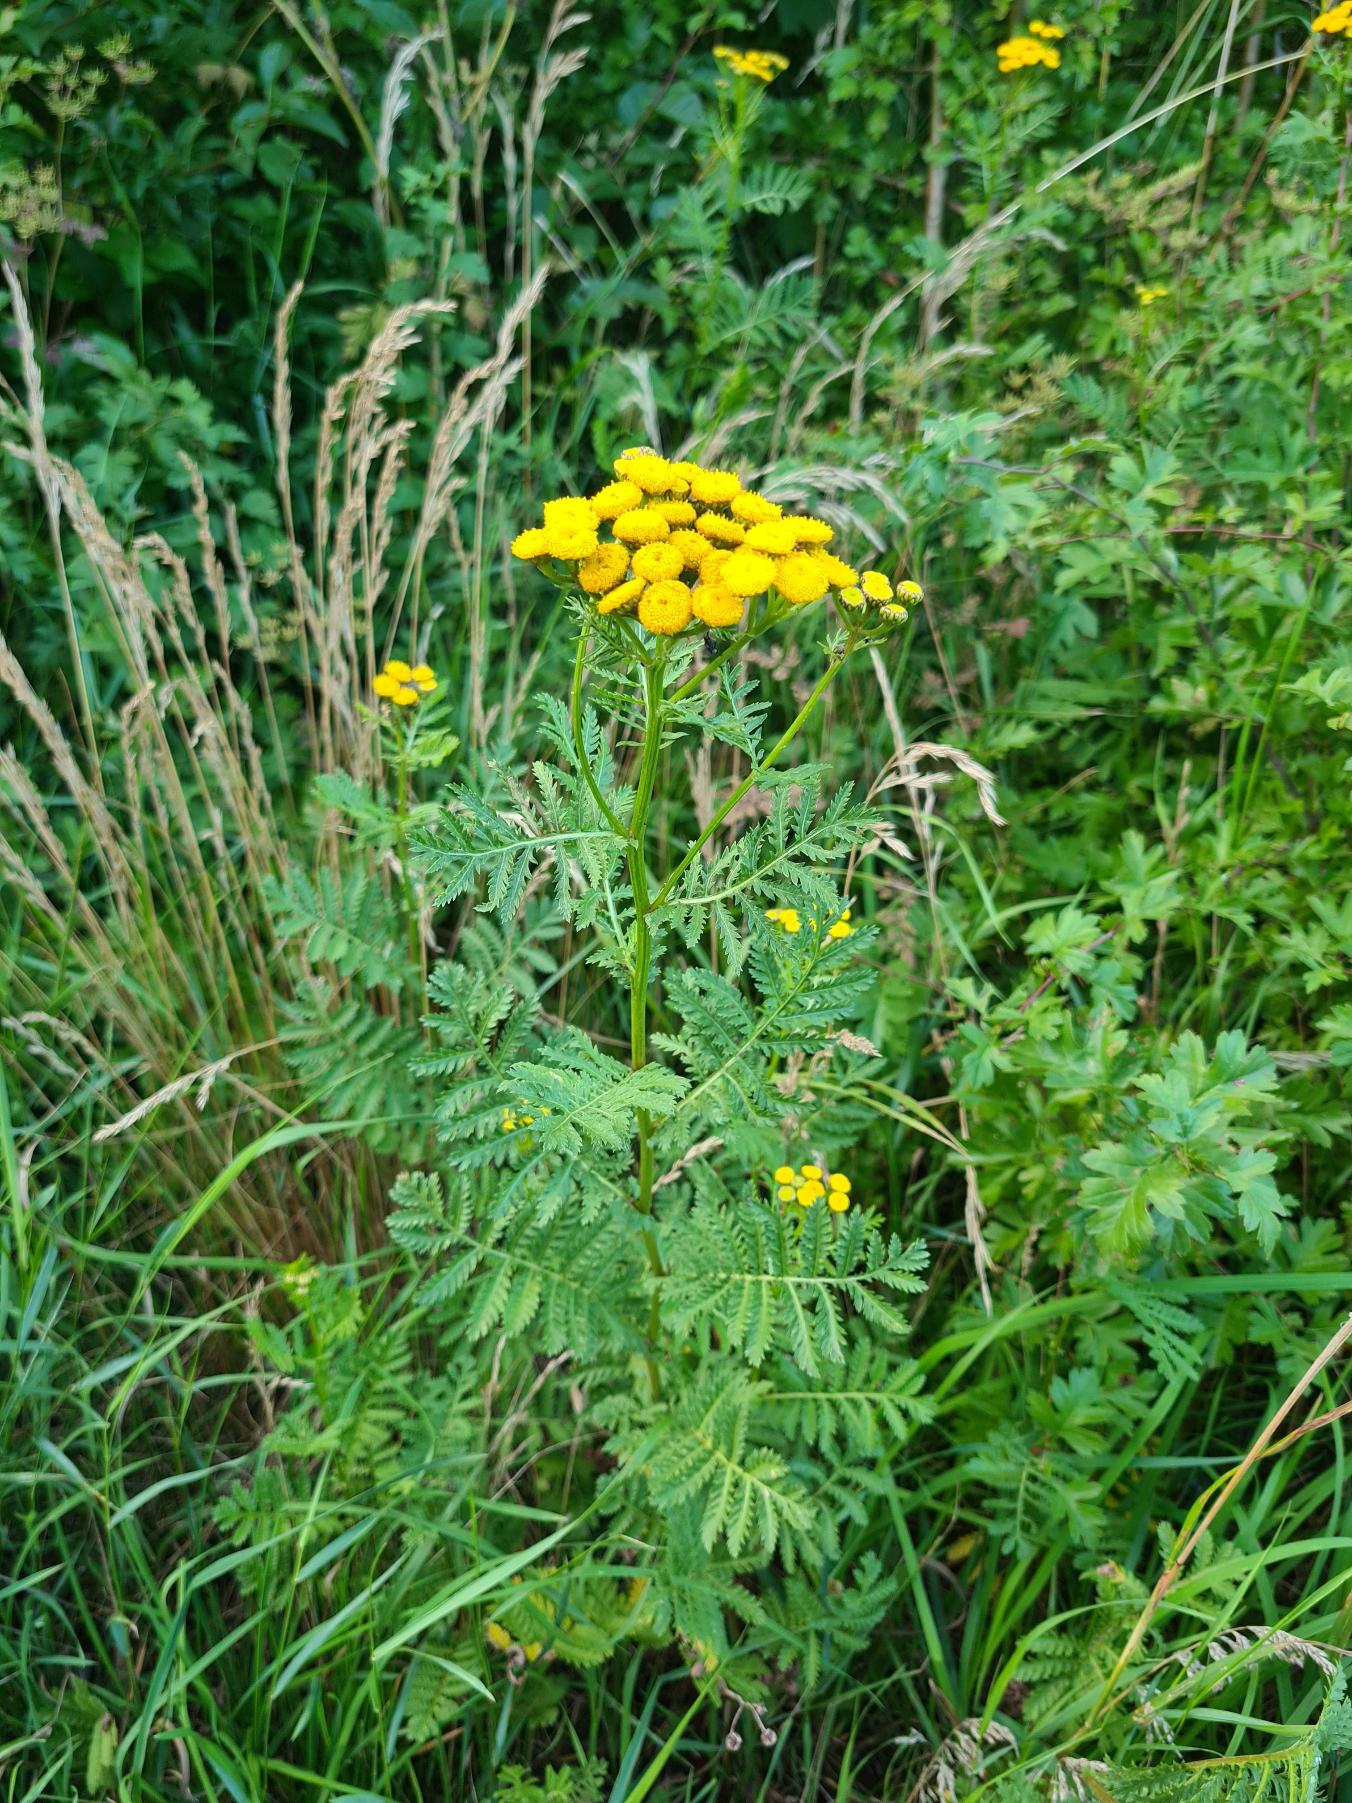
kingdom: Plantae
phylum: Tracheophyta
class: Magnoliopsida
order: Asterales
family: Asteraceae
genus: Tanacetum
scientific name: Tanacetum vulgare
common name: Rejnfan
